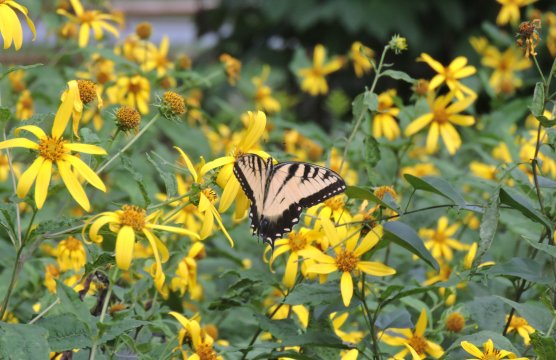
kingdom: Animalia
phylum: Arthropoda
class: Insecta
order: Lepidoptera
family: Papilionidae
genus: Pterourus
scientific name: Pterourus glaucus
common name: Eastern Tiger Swallowtail
